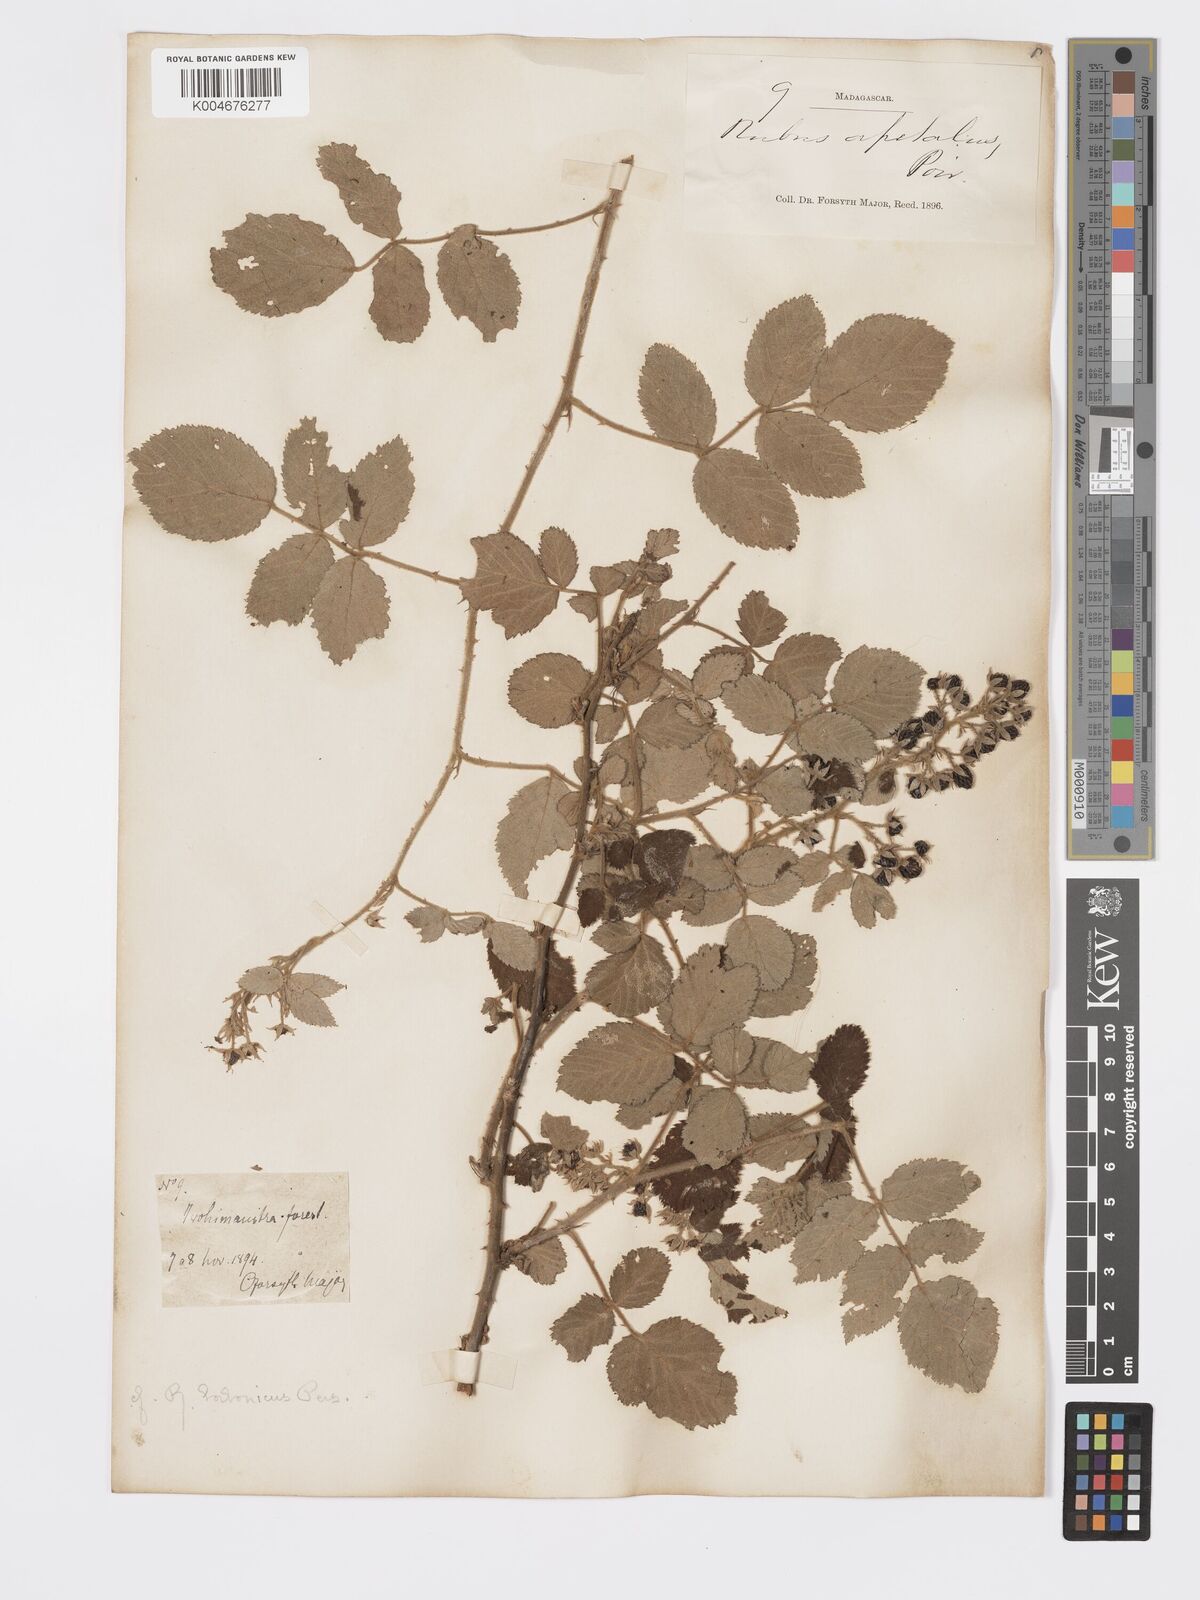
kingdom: Plantae
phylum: Tracheophyta
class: Magnoliopsida
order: Rosales
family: Rosaceae
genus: Rubus
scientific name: Rubus apetalus
